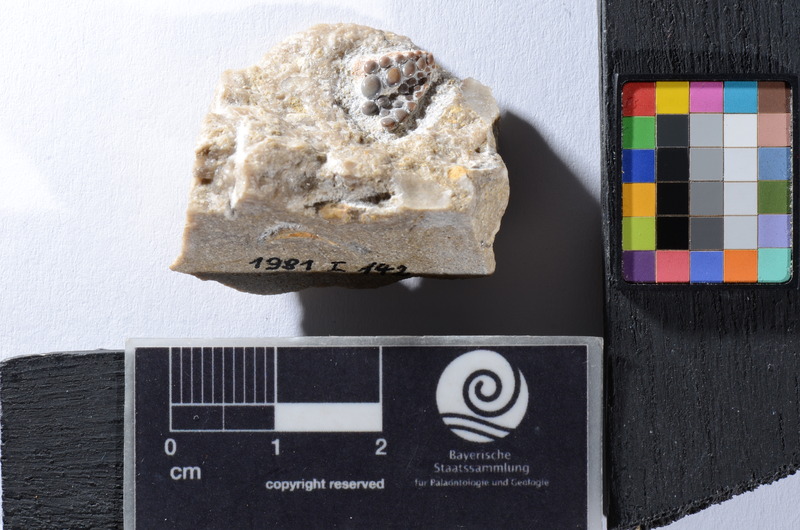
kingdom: Animalia
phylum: Chordata
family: Pycnodontidae
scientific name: Pycnodontidae
